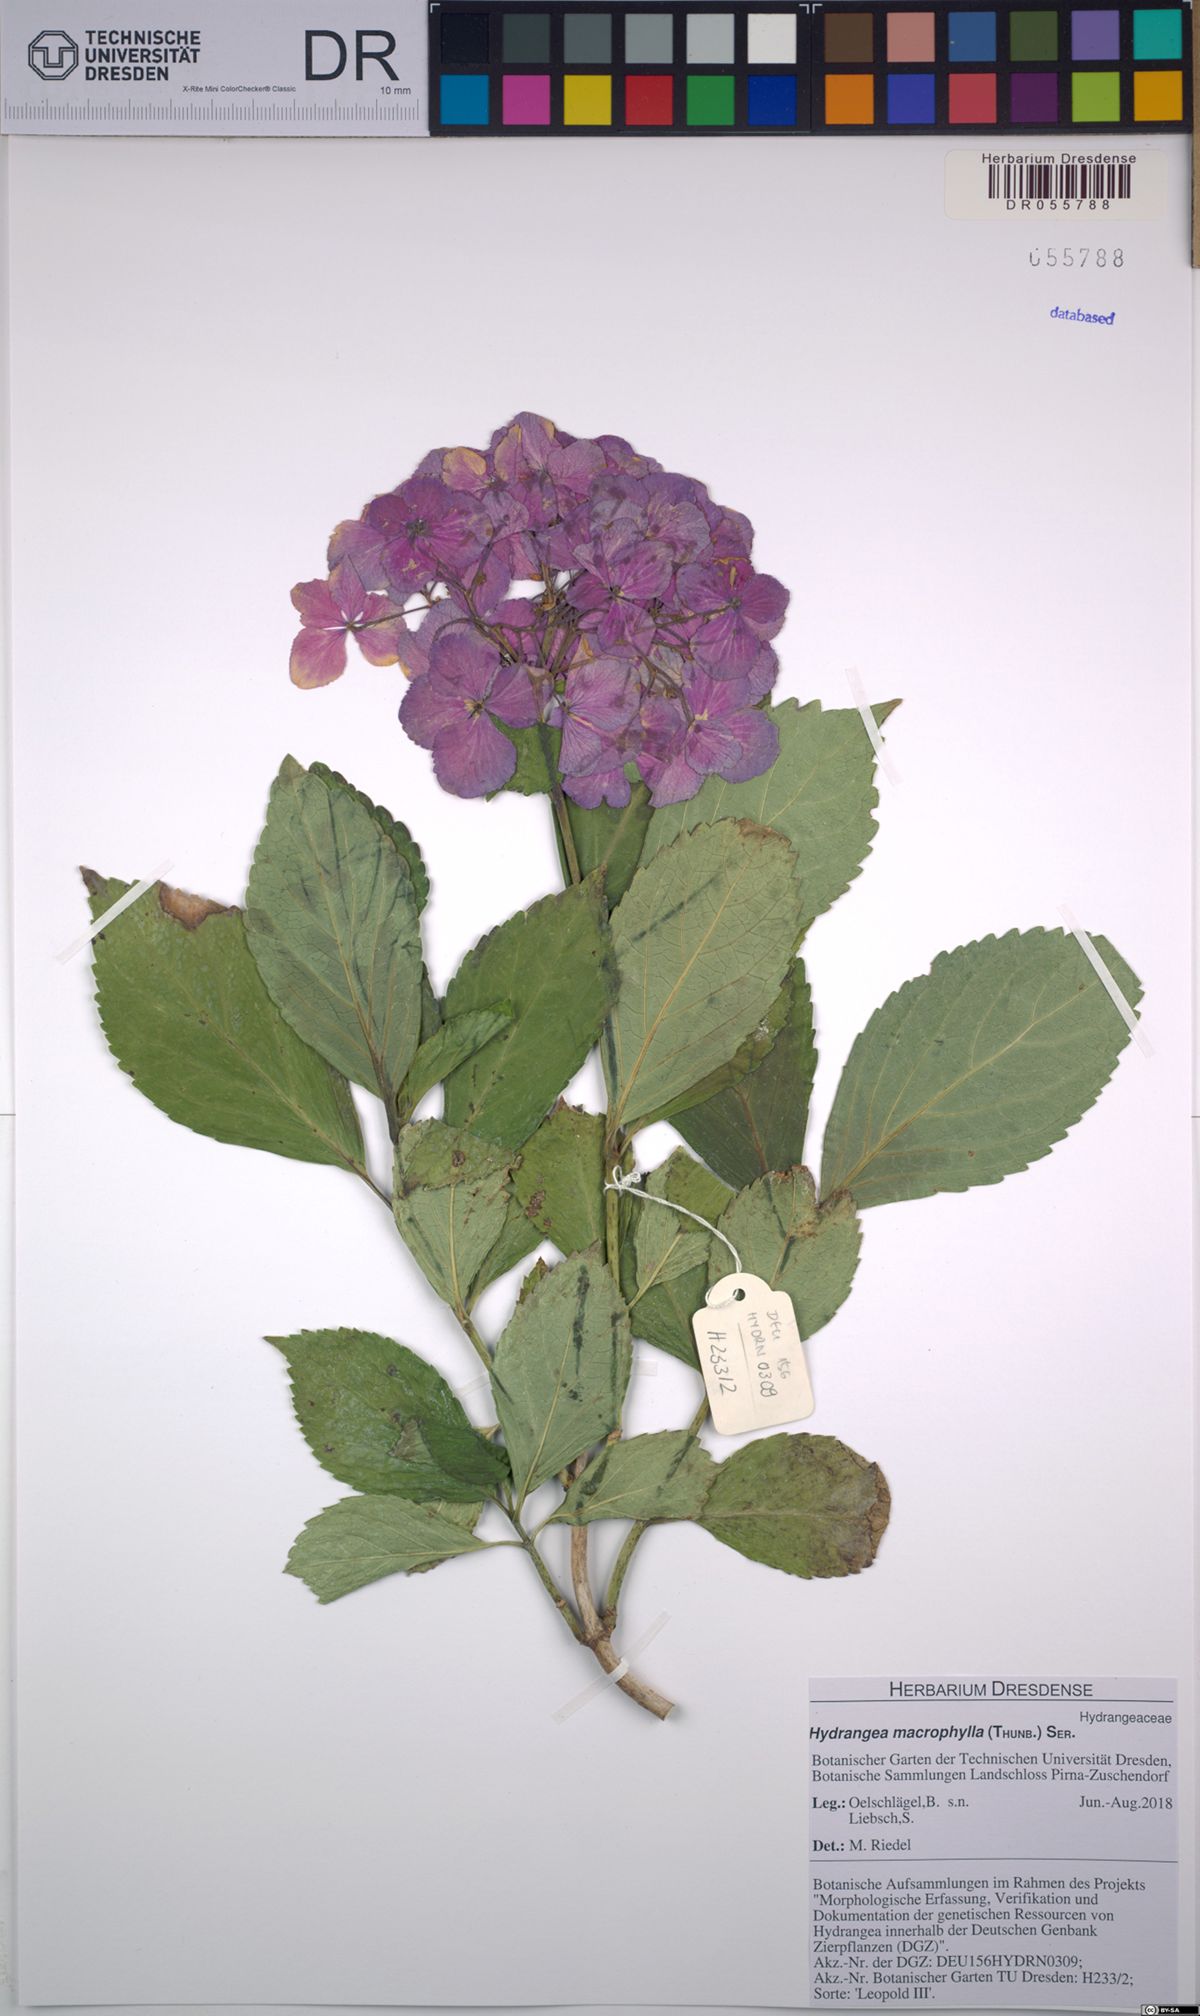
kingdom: Plantae
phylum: Tracheophyta
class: Magnoliopsida
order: Cornales
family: Hydrangeaceae
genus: Hydrangea
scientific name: Hydrangea macrophylla
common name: Hydrangea
